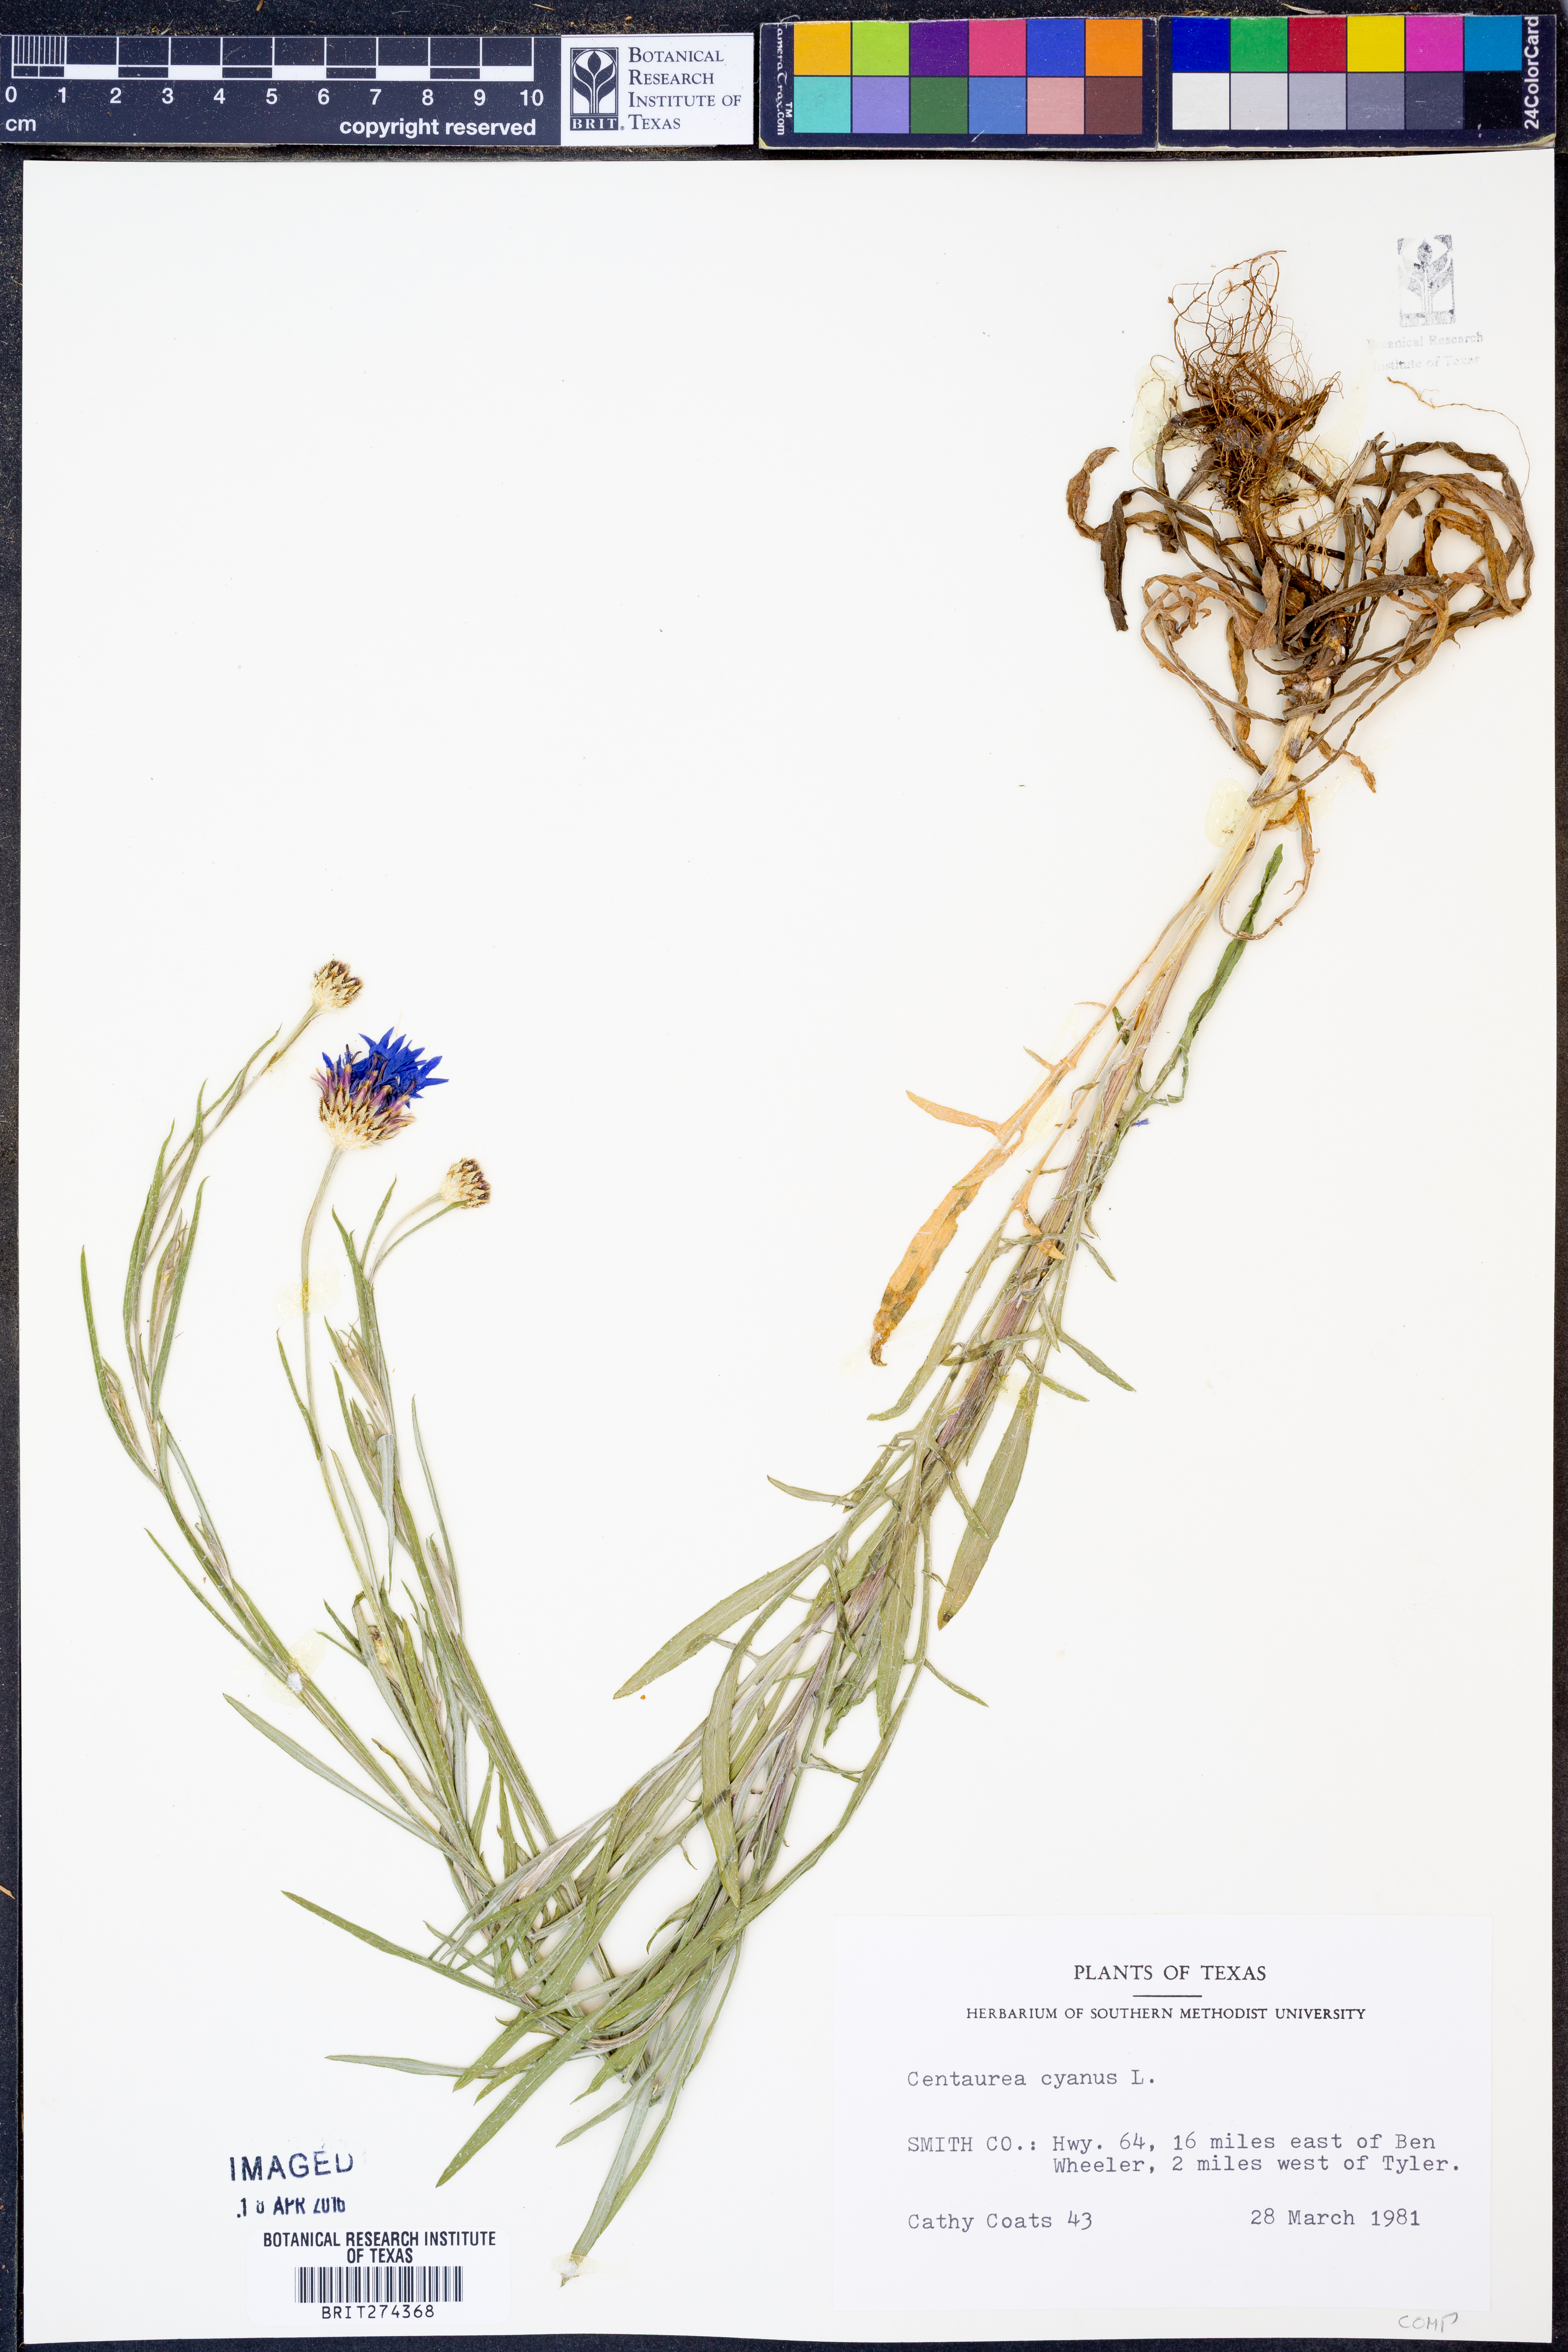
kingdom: Plantae
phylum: Tracheophyta
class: Magnoliopsida
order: Asterales
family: Asteraceae
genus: Centaurea
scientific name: Centaurea cyanus
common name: Cornflower
